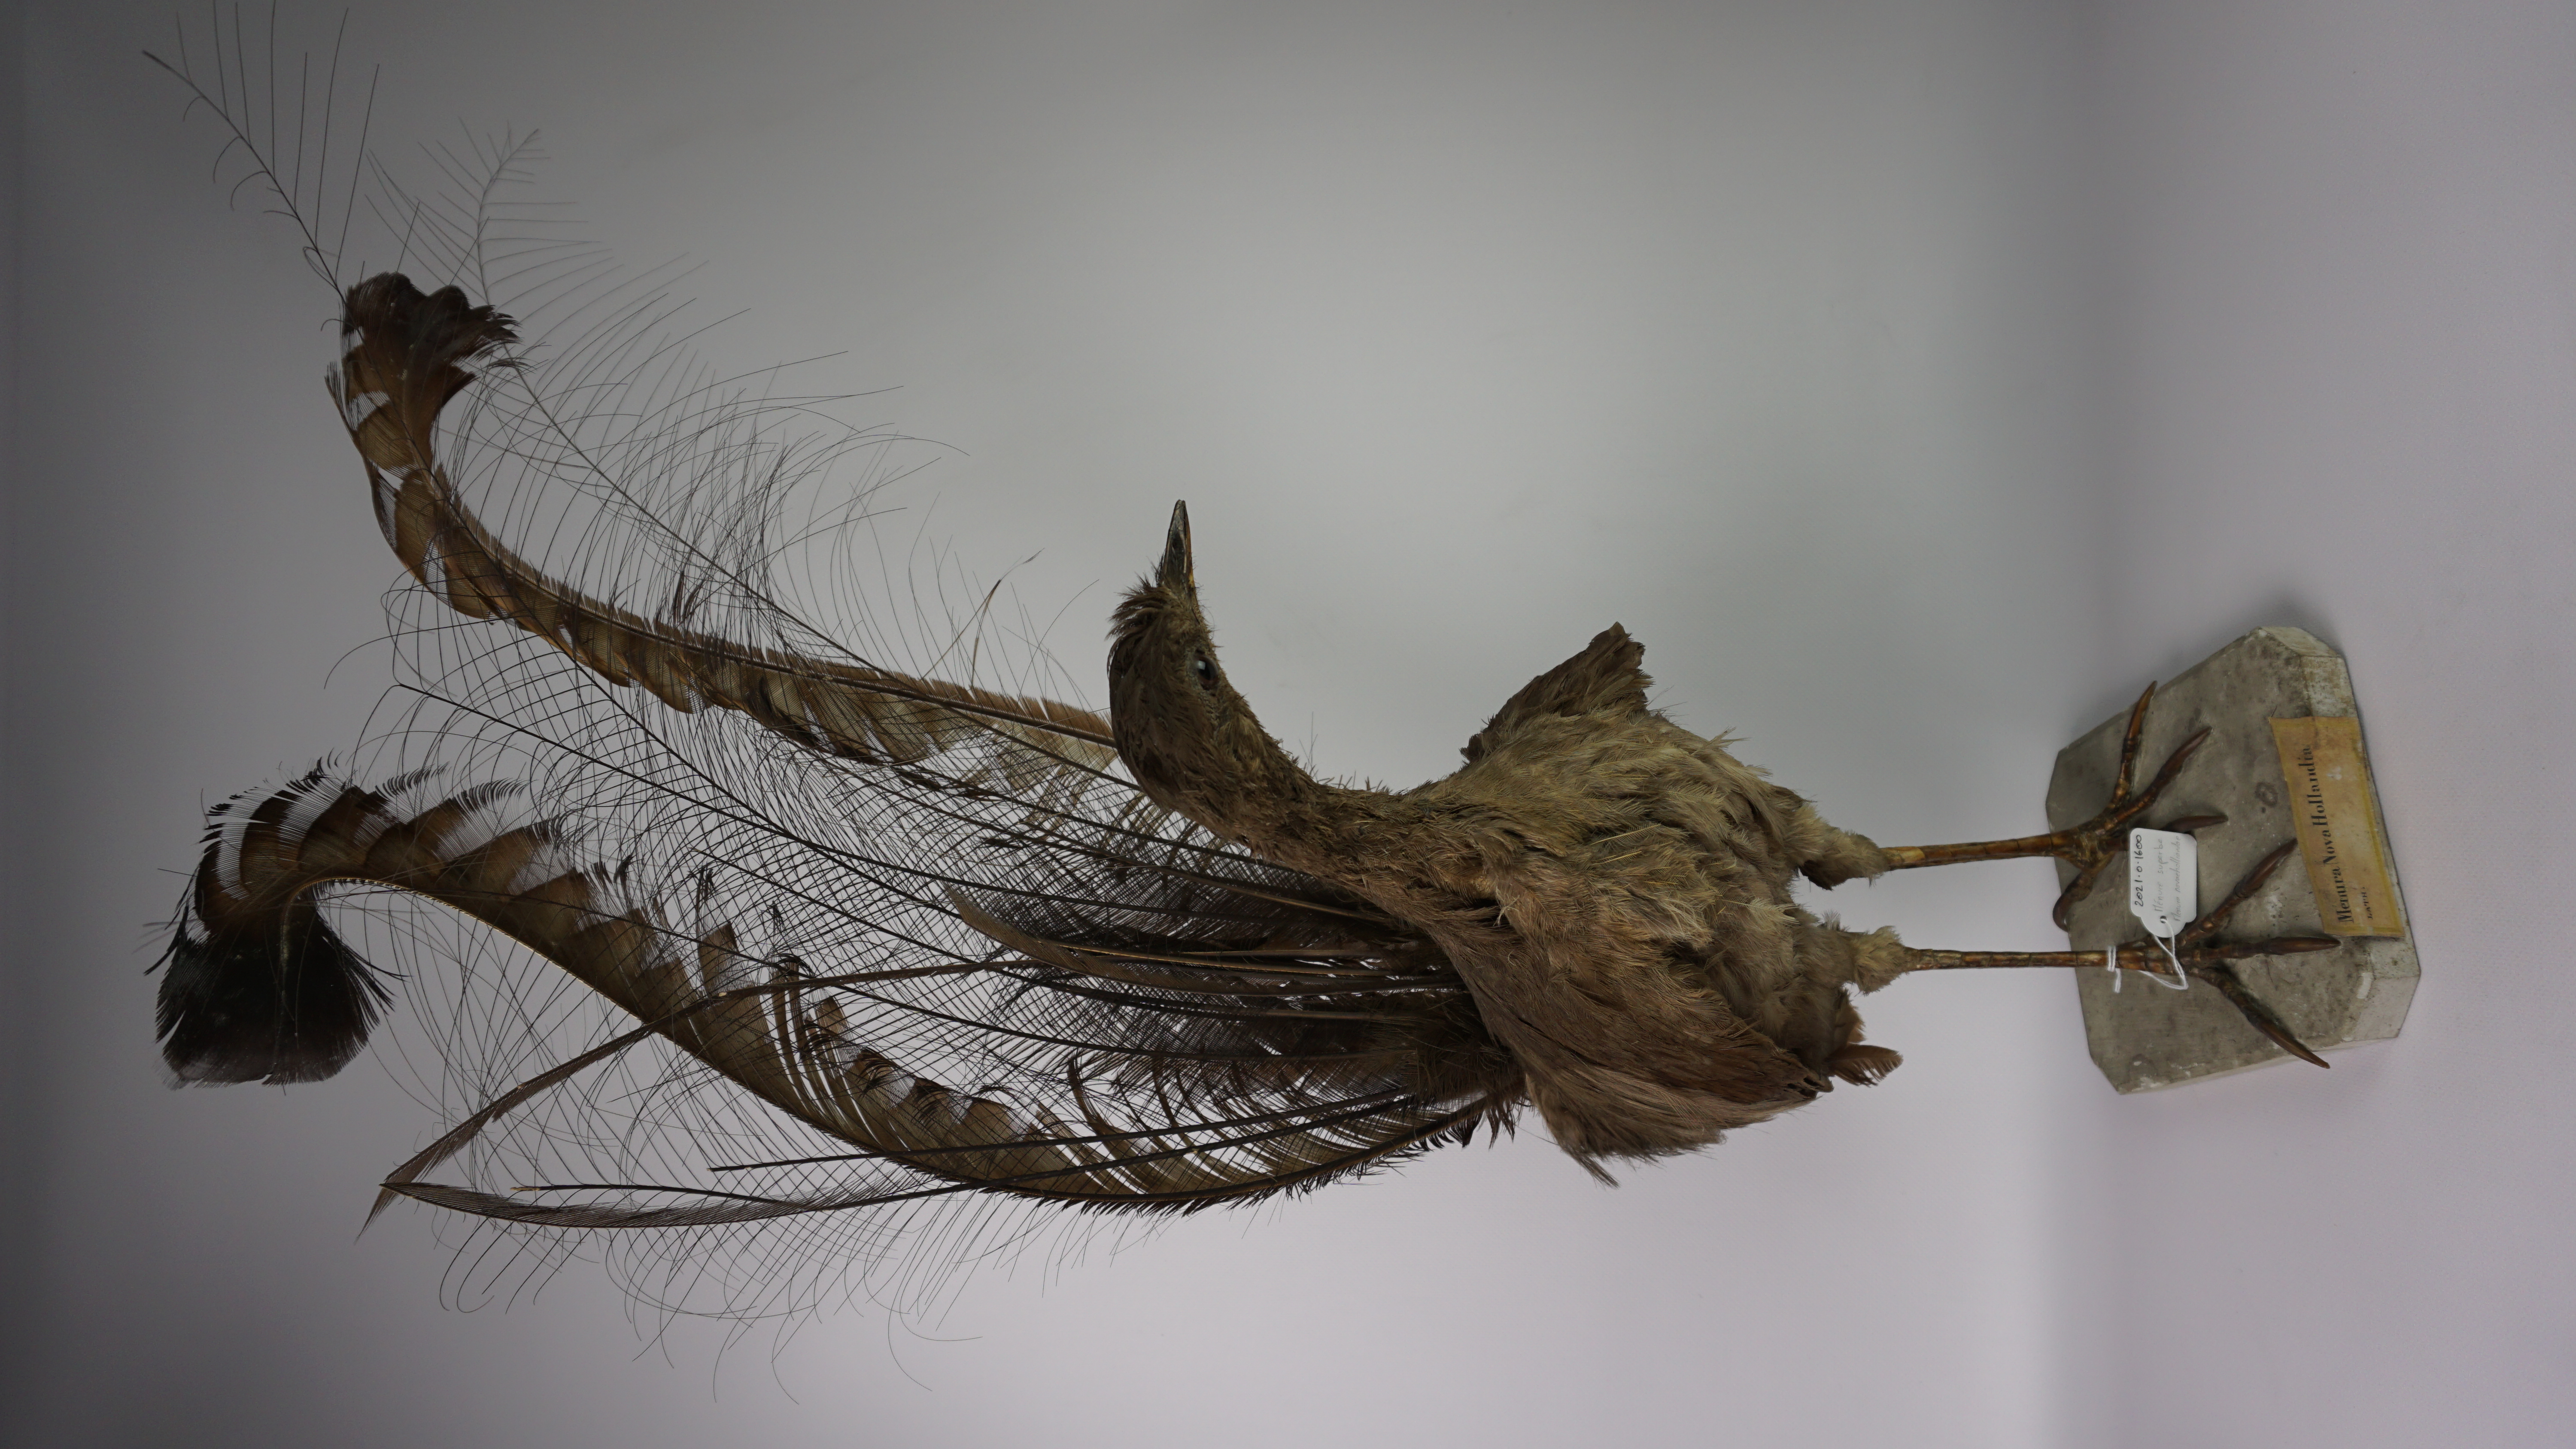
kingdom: Animalia
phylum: Chordata
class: Aves
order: Passeriformes
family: Menuridae
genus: Menura
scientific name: Menura novaehollandiae
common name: Superb lyrebird
